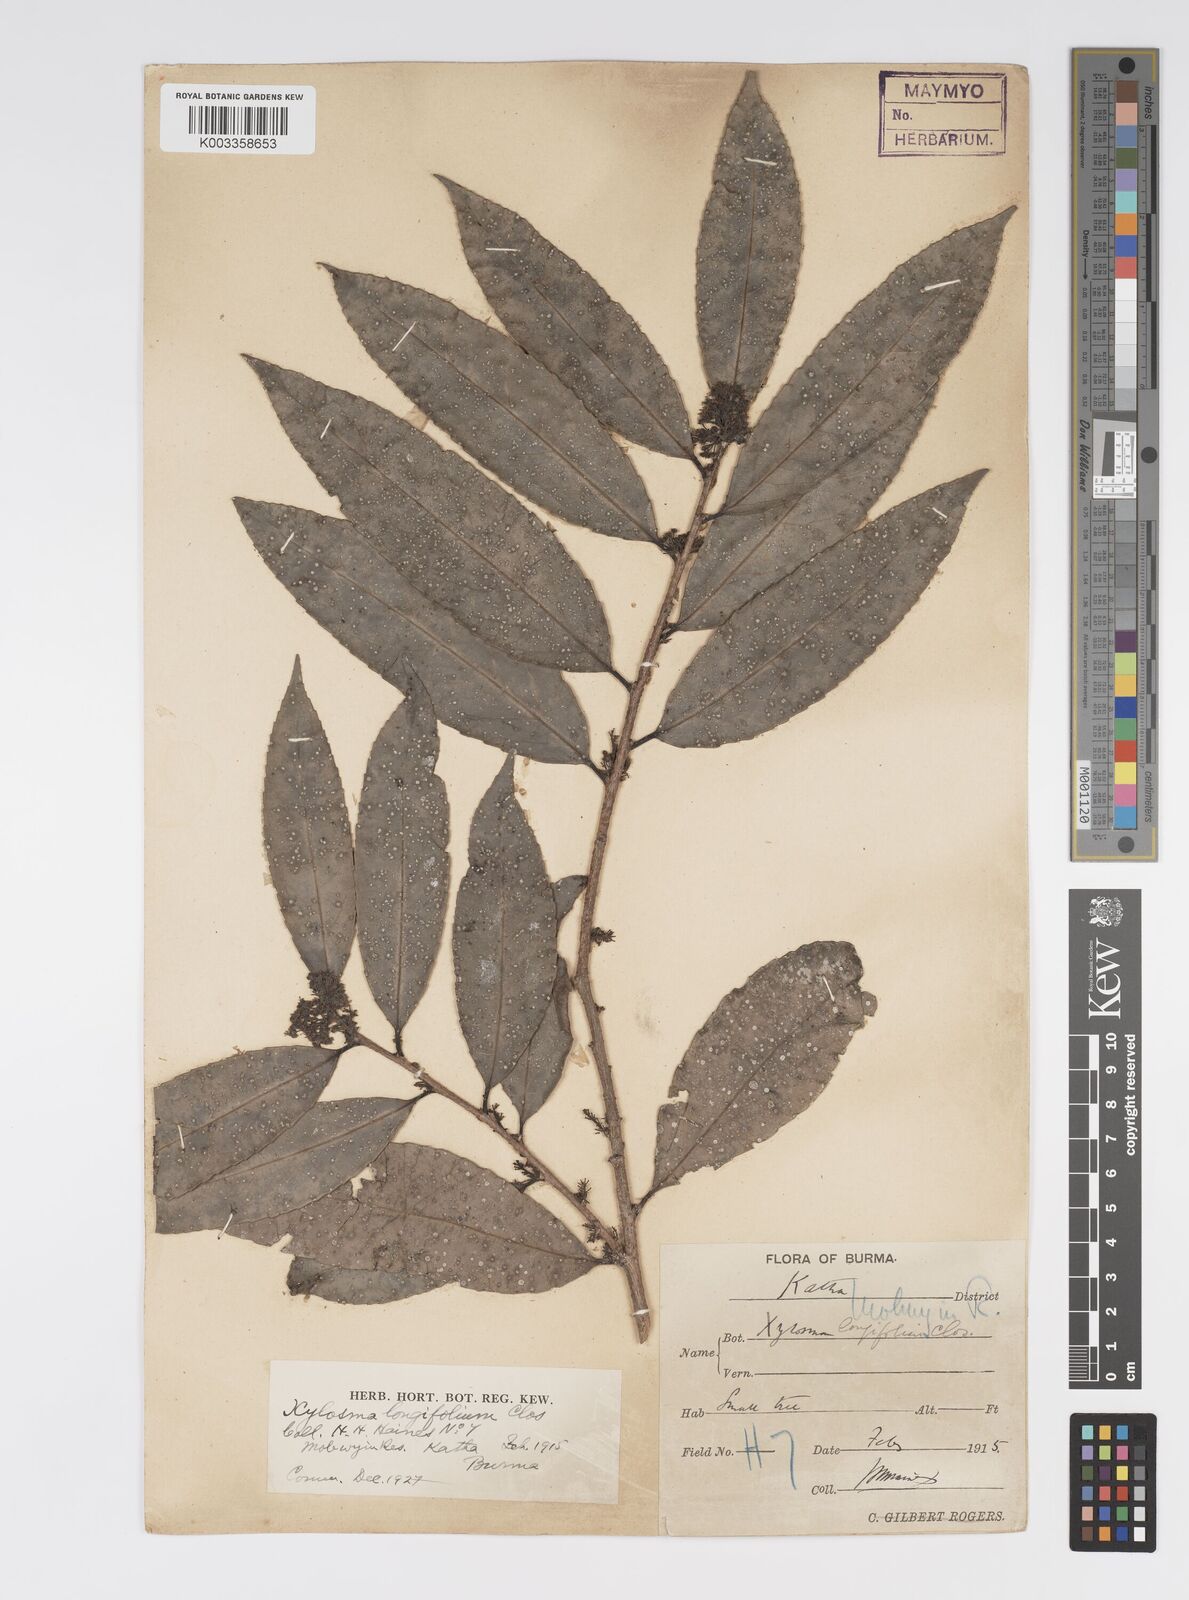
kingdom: Plantae
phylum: Tracheophyta
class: Magnoliopsida
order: Malpighiales
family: Salicaceae
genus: Xylosma
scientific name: Xylosma longifolia
